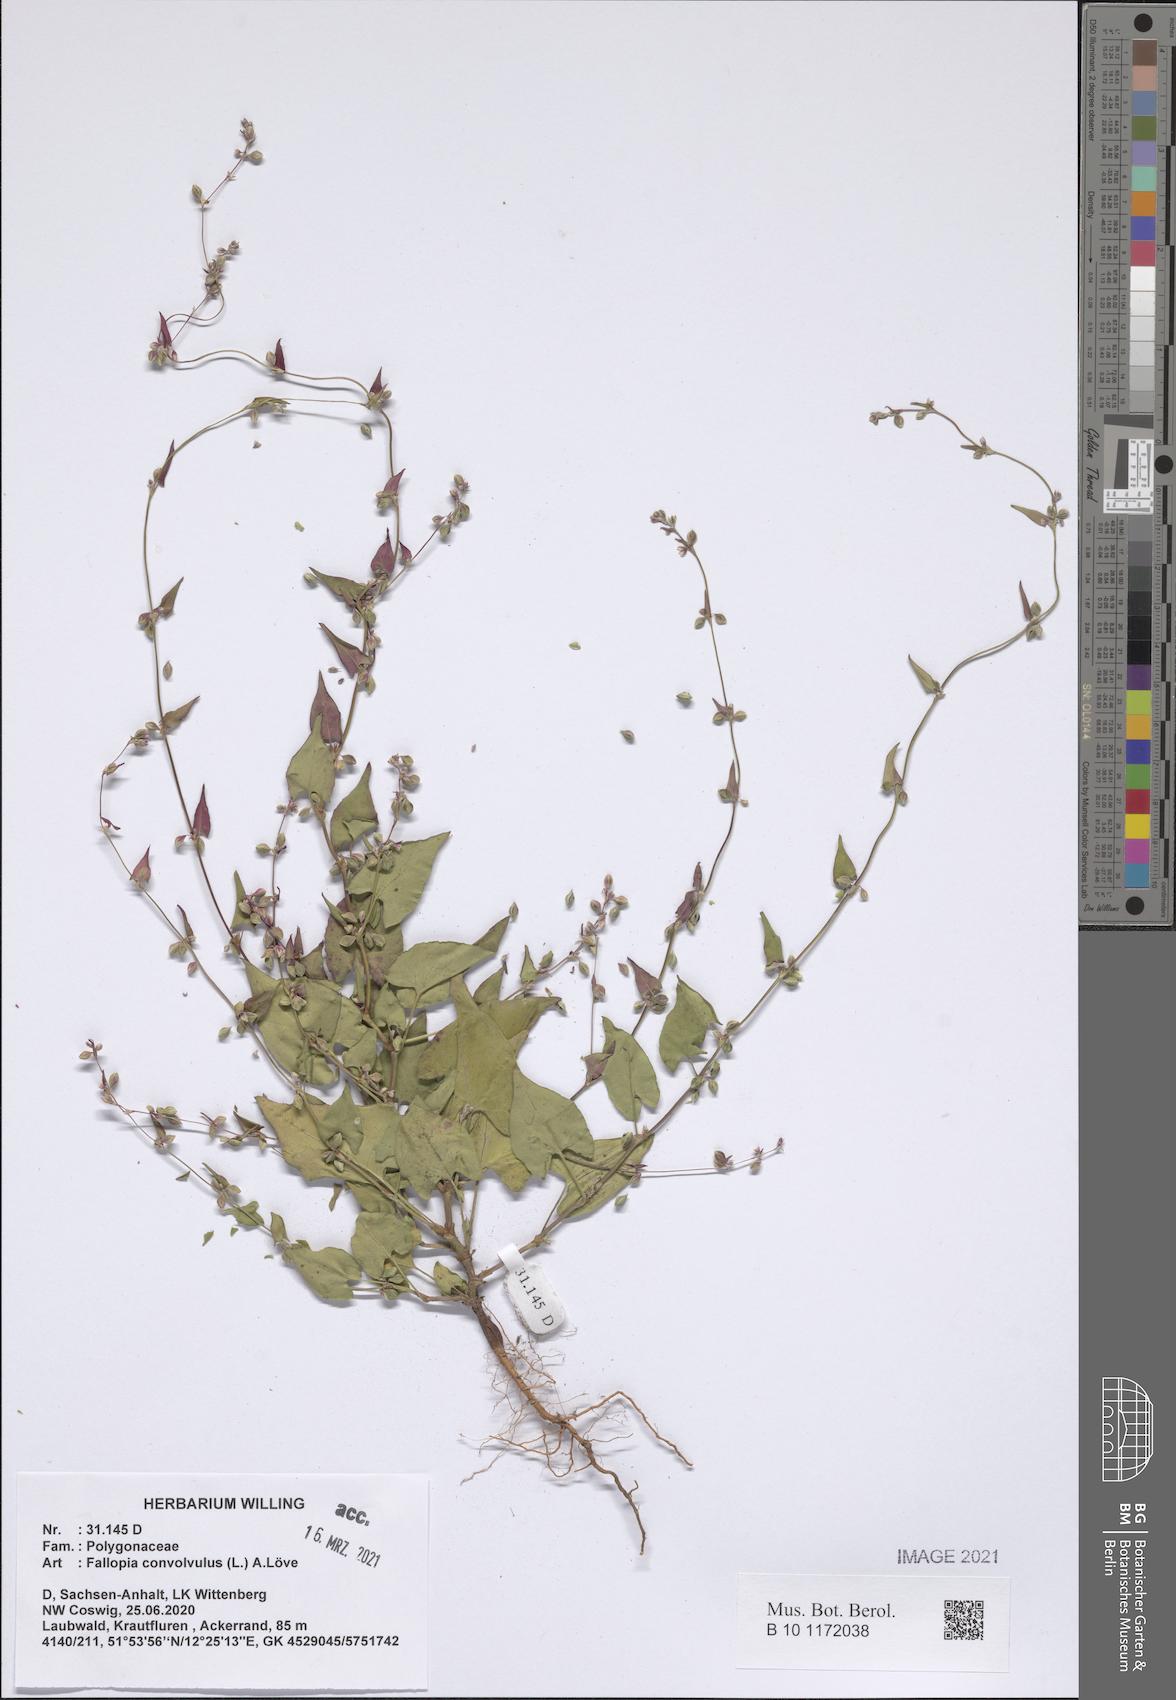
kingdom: Plantae
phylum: Tracheophyta
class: Magnoliopsida
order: Caryophyllales
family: Polygonaceae
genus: Fallopia
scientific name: Fallopia convolvulus
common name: Black bindweed
